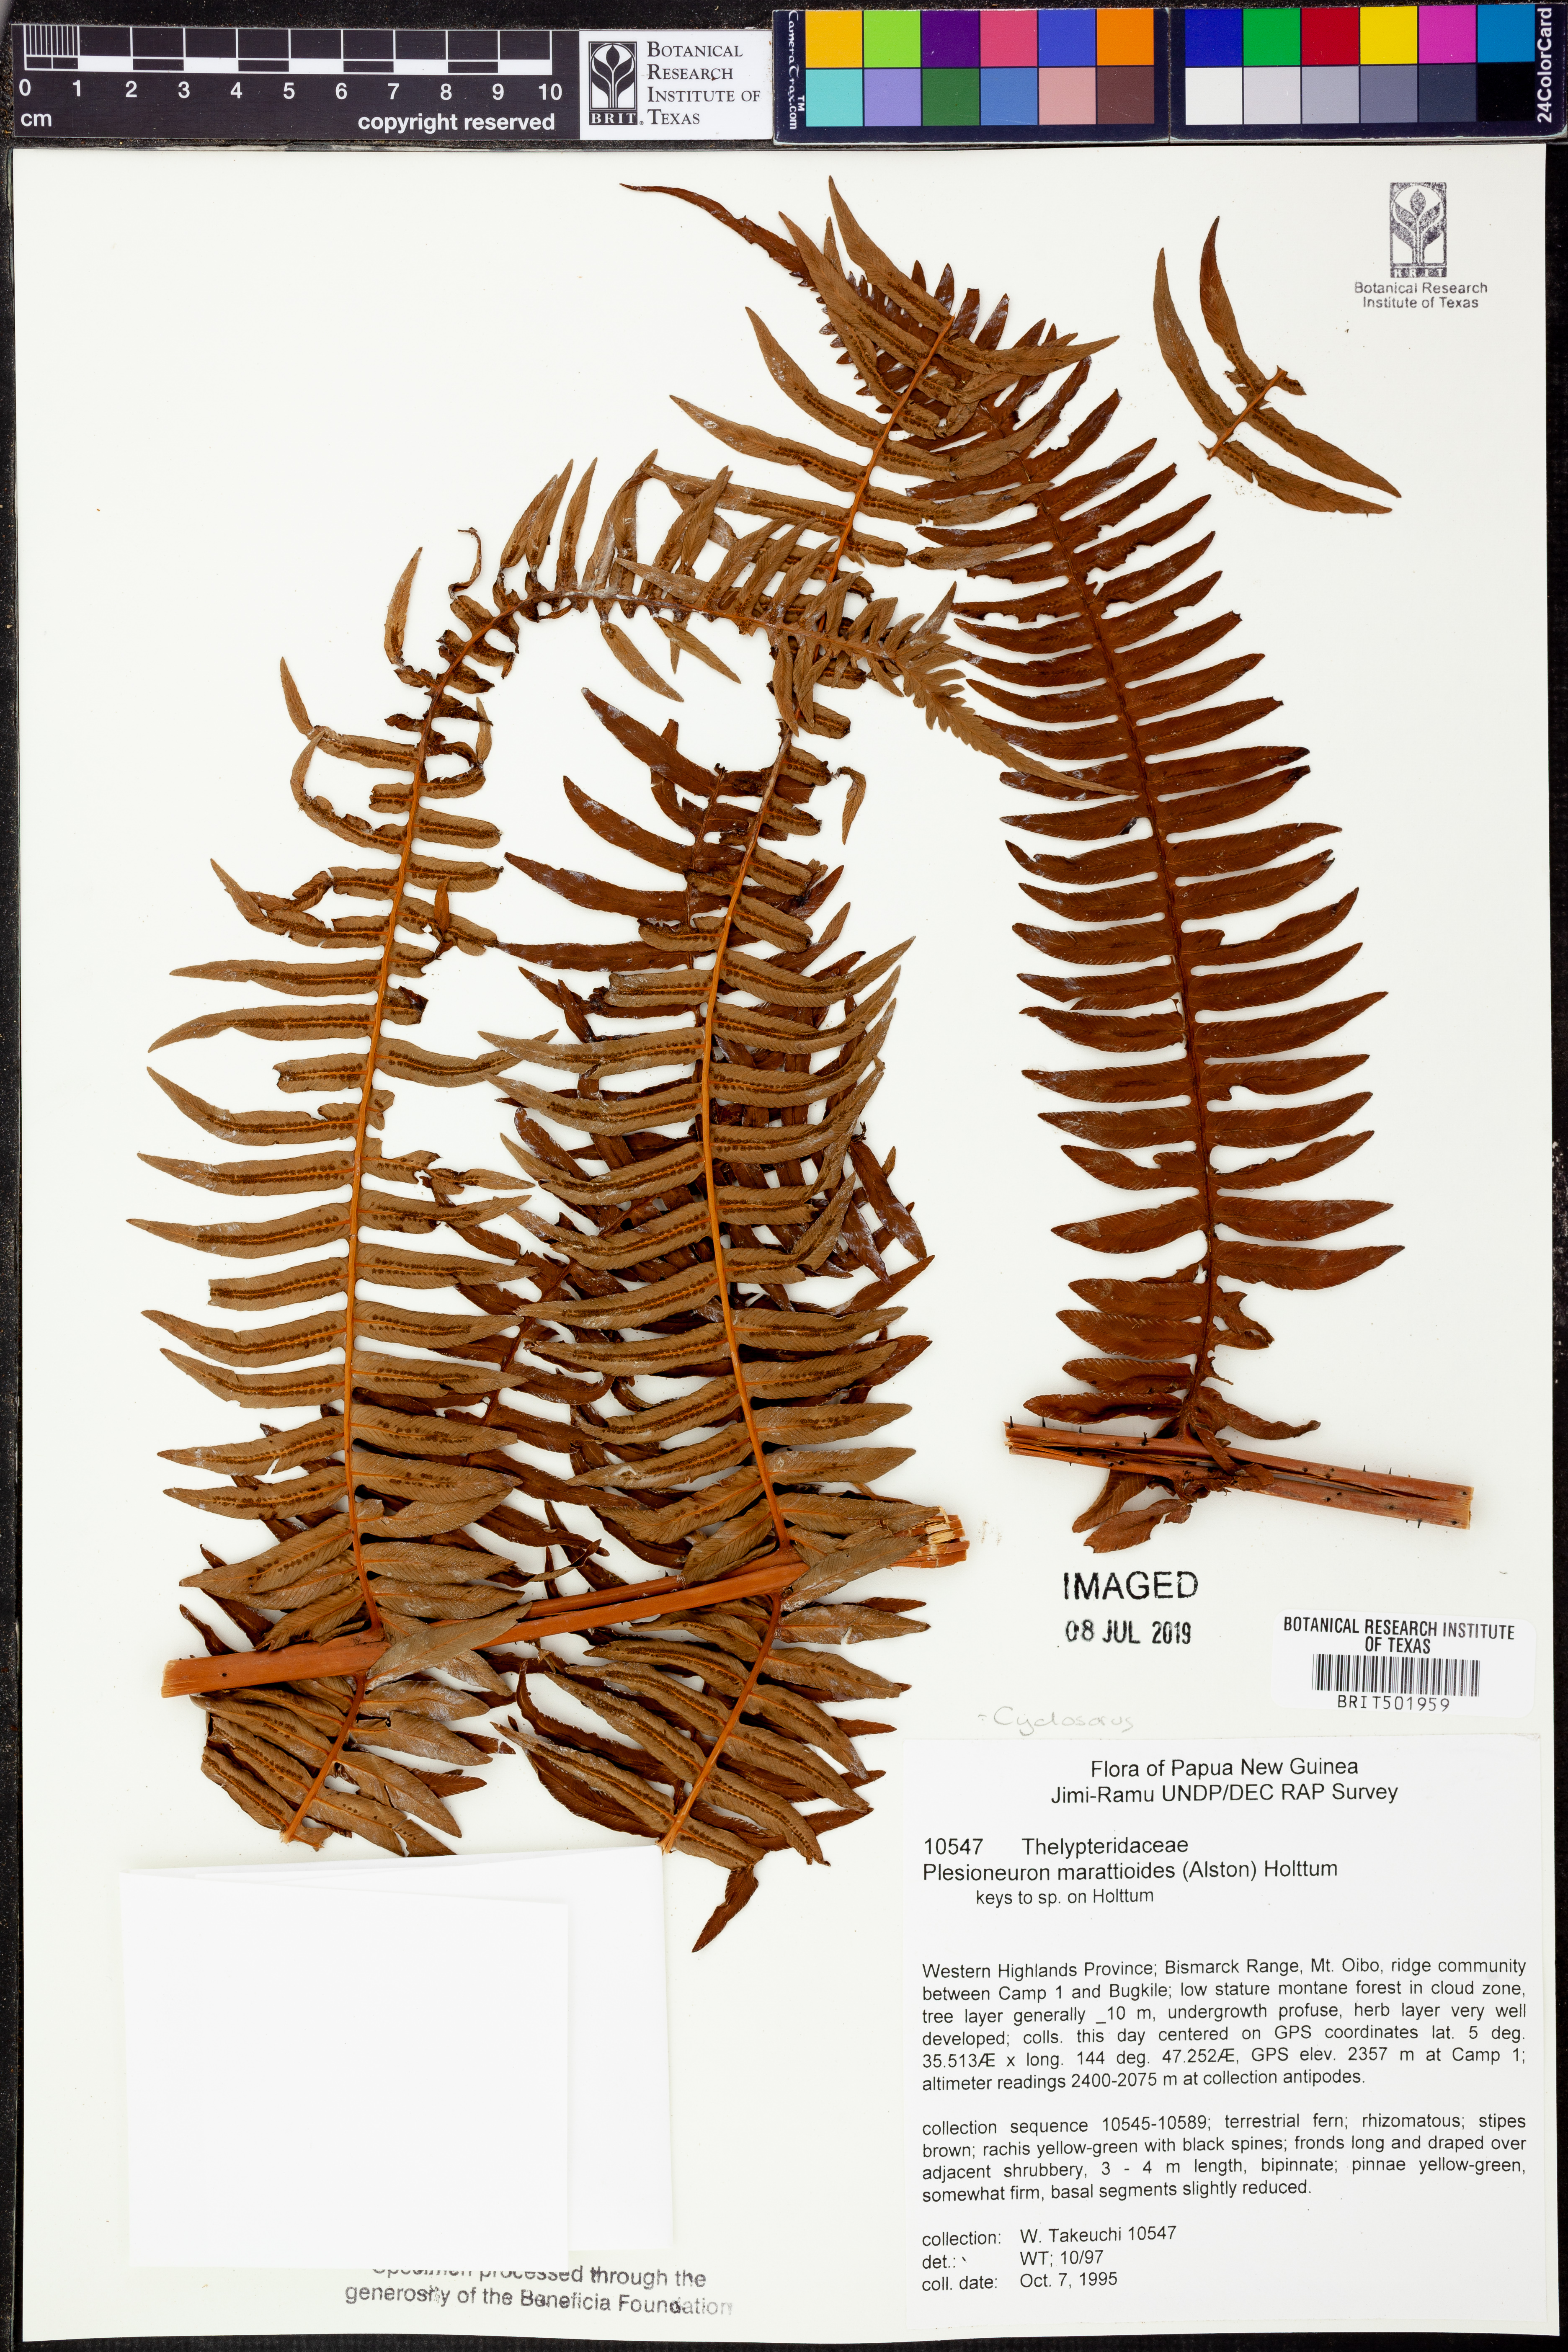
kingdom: Plantae
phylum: Tracheophyta
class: Polypodiopsida
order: Polypodiales
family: Thelypteridaceae
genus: Chingia
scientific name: Chingia marattioides
